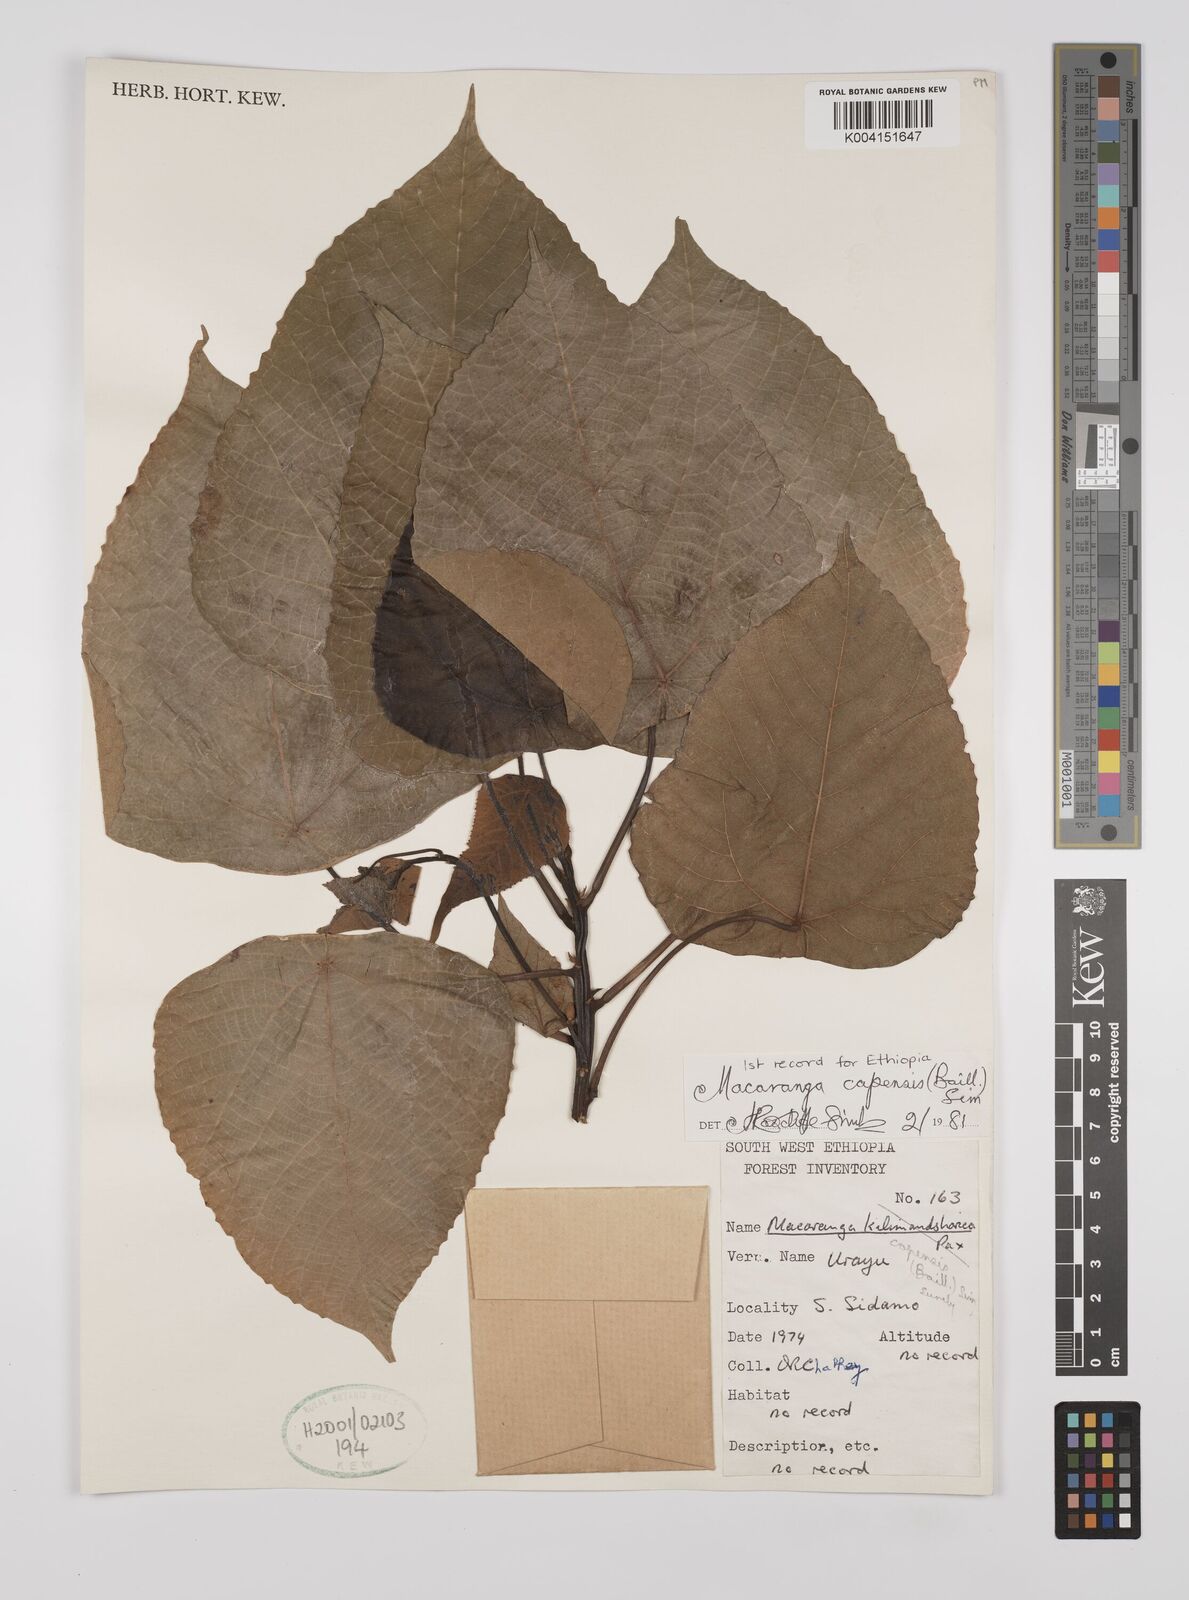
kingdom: Plantae
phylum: Tracheophyta
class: Magnoliopsida
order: Malpighiales
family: Euphorbiaceae
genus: Macaranga
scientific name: Macaranga capensis
